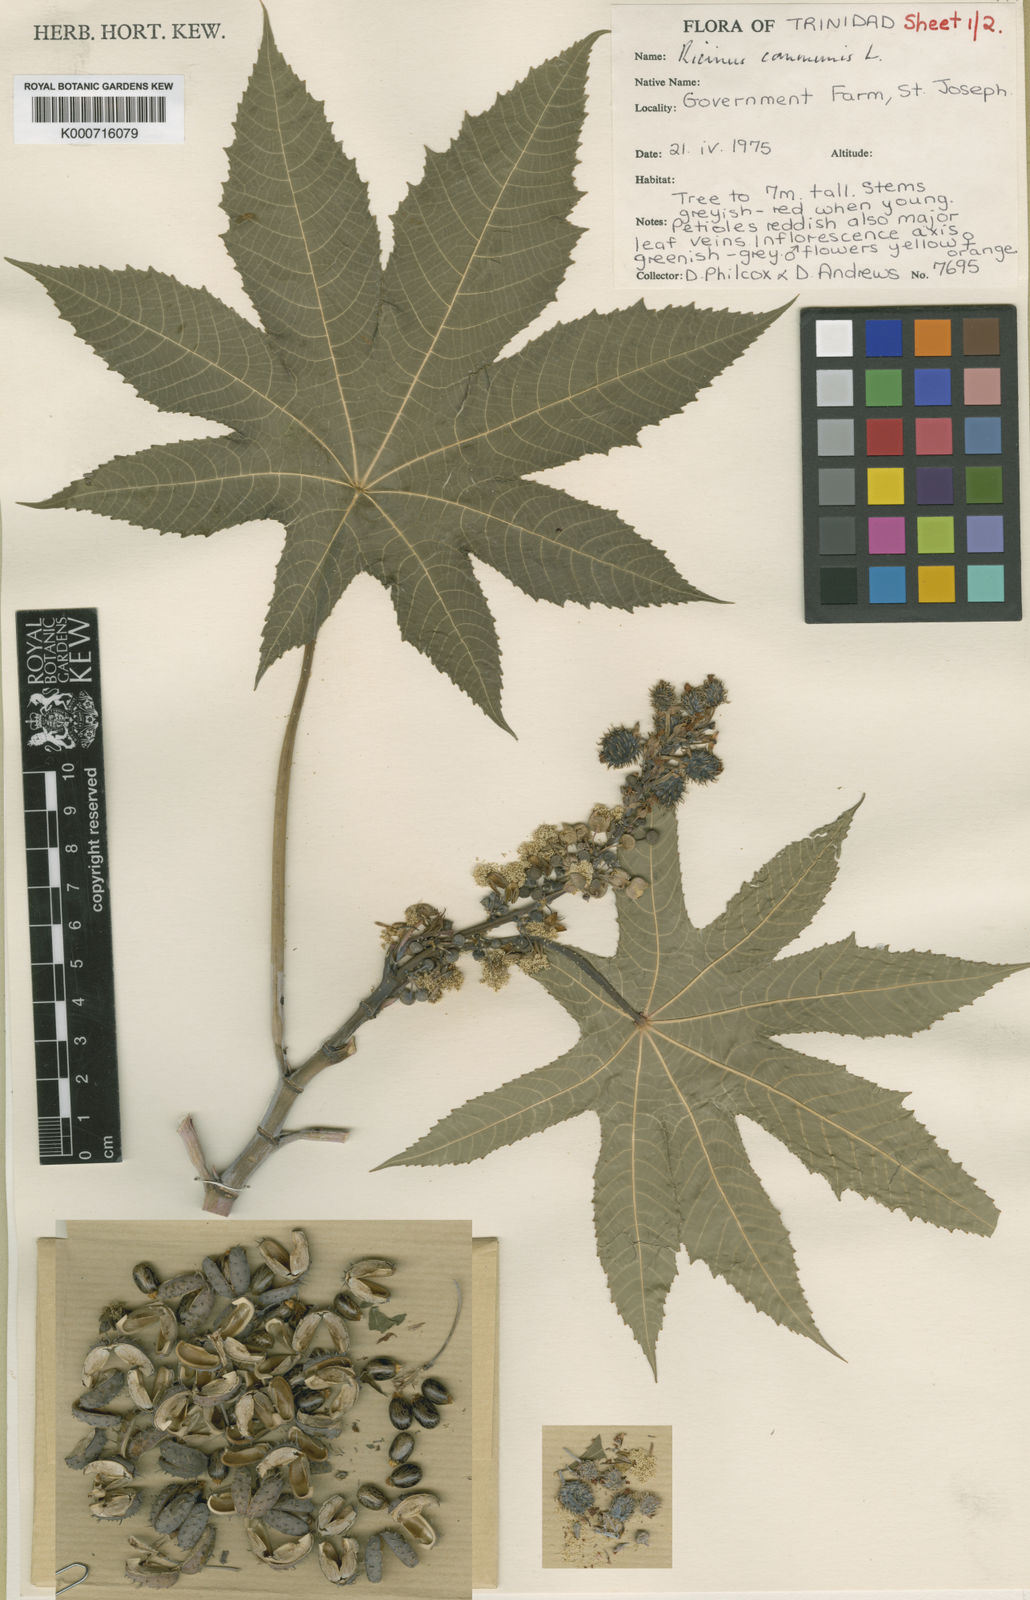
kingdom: Plantae
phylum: Tracheophyta
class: Magnoliopsida
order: Malpighiales
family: Euphorbiaceae
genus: Ricinus
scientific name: Ricinus communis
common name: Castor-oil-plant
